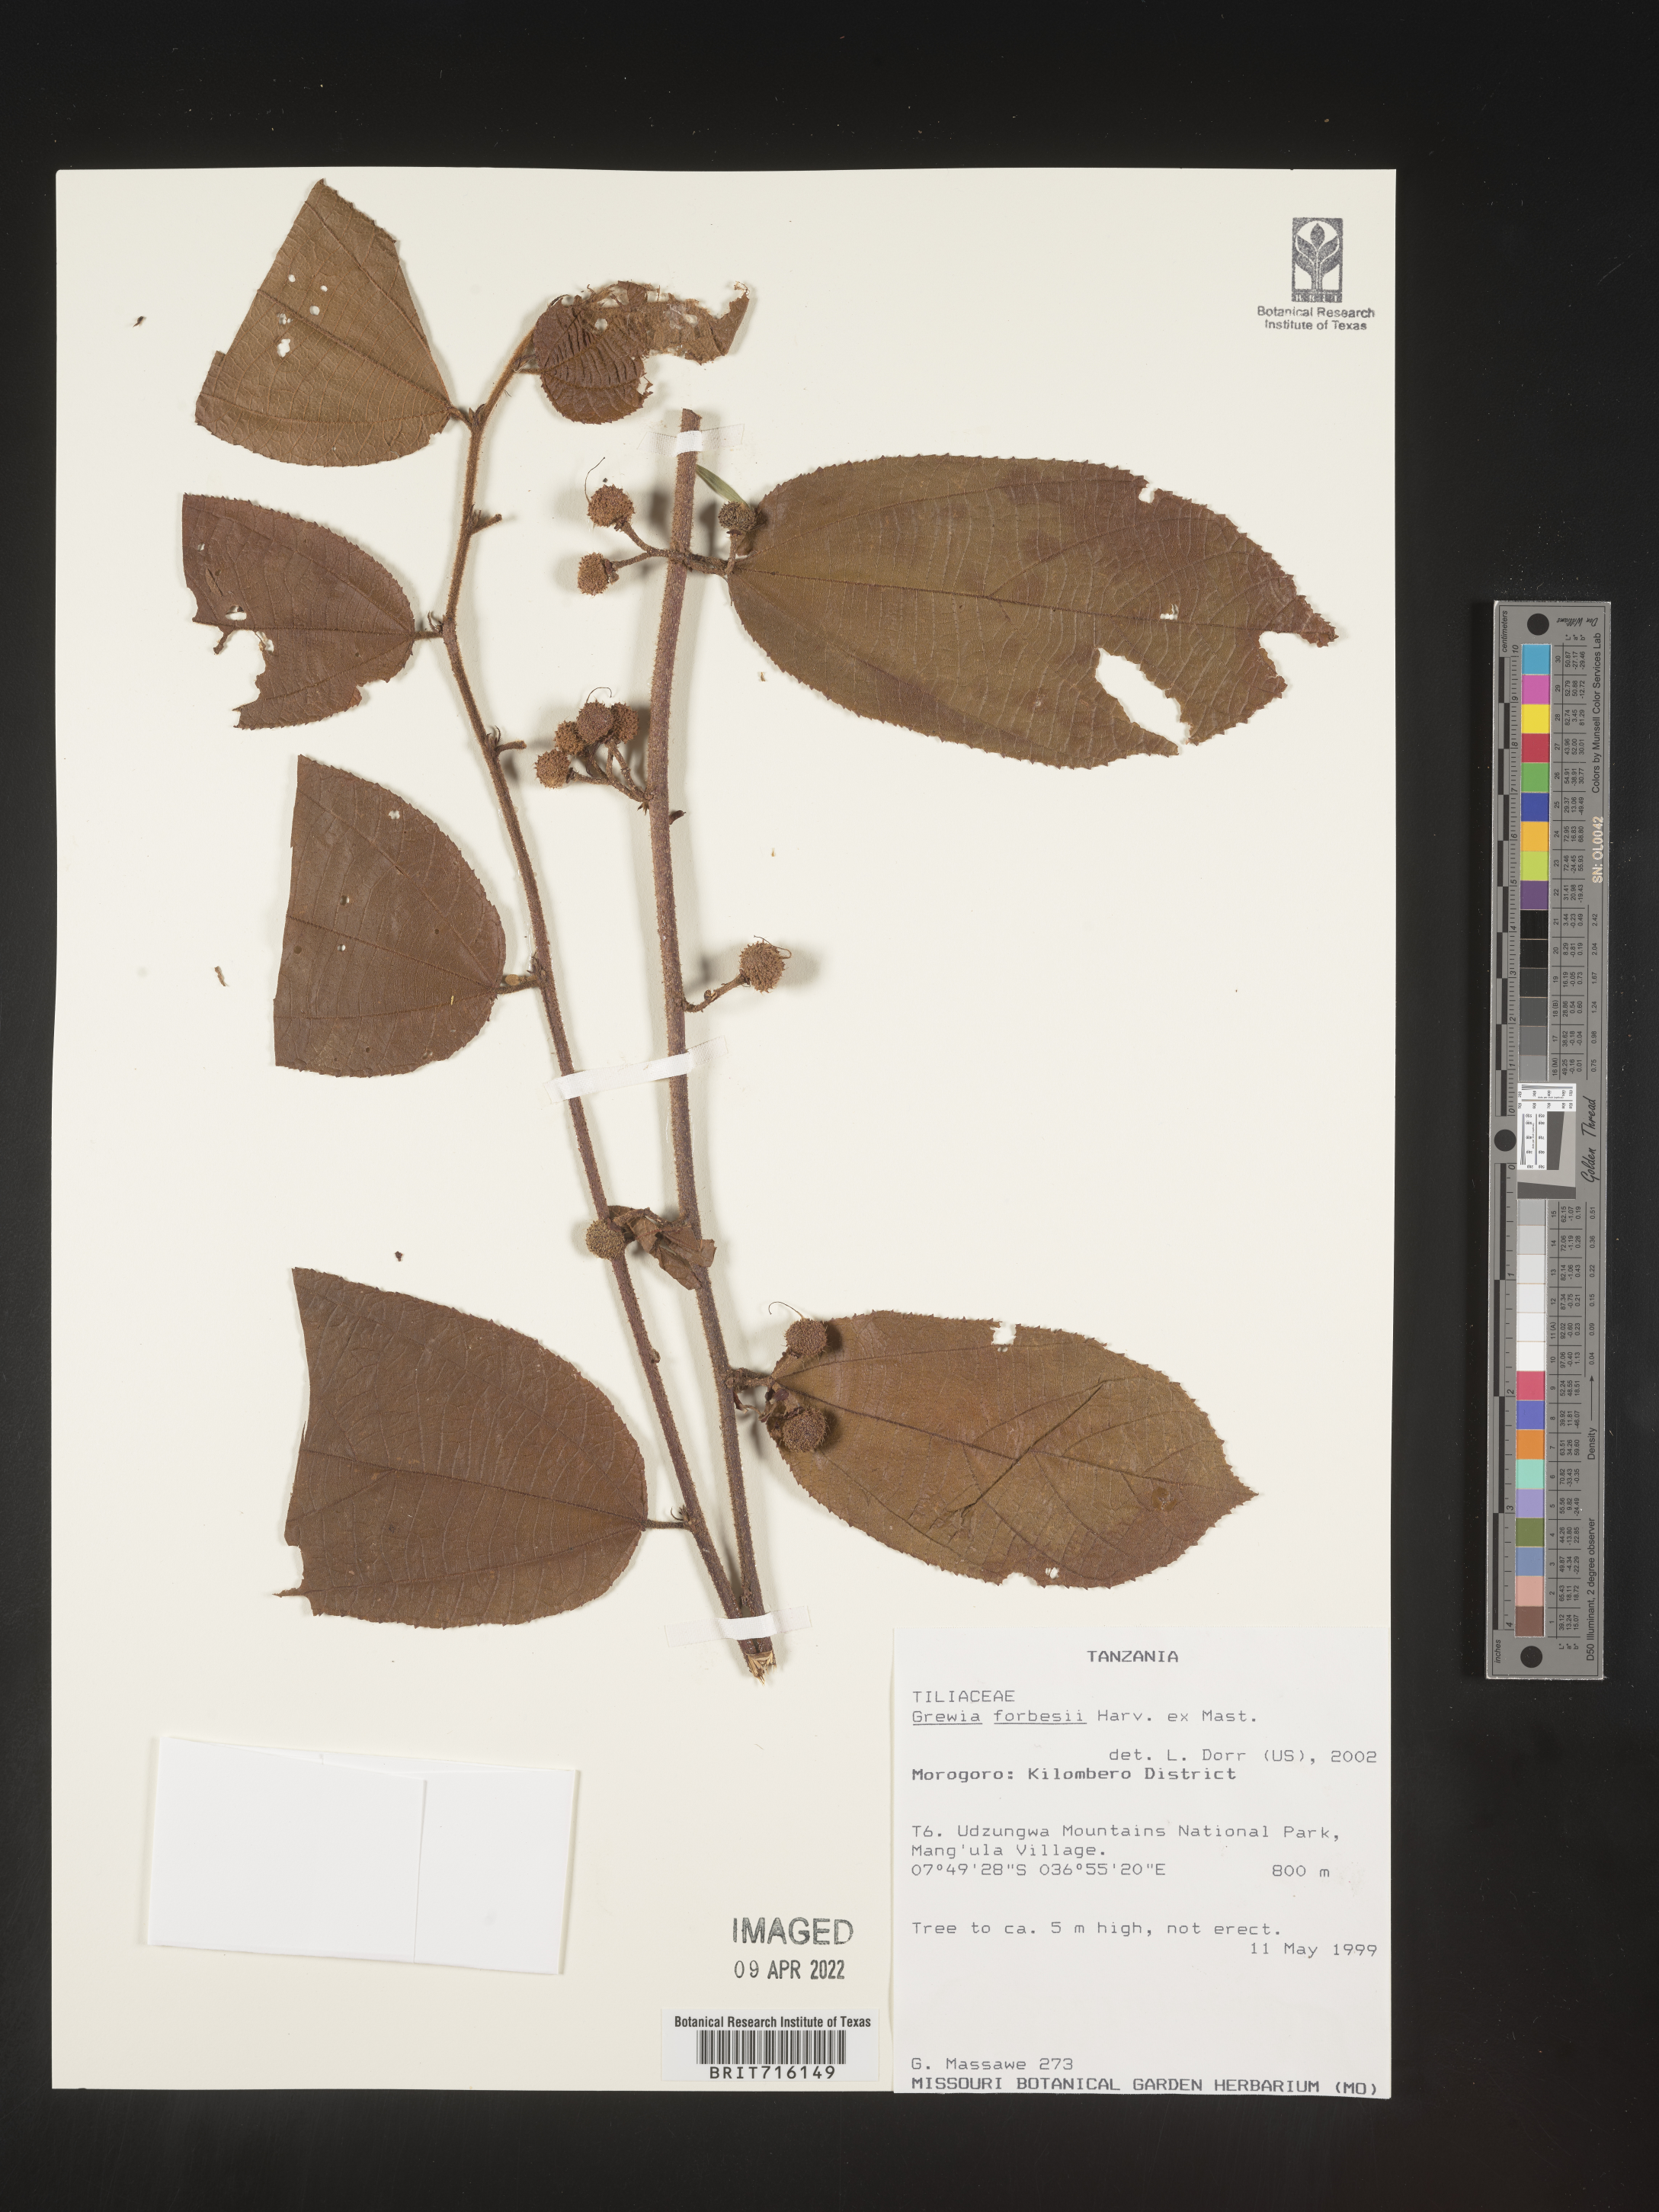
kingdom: Plantae
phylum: Tracheophyta
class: Magnoliopsida
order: Malvales
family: Malvaceae
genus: Grewia
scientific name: Grewia
